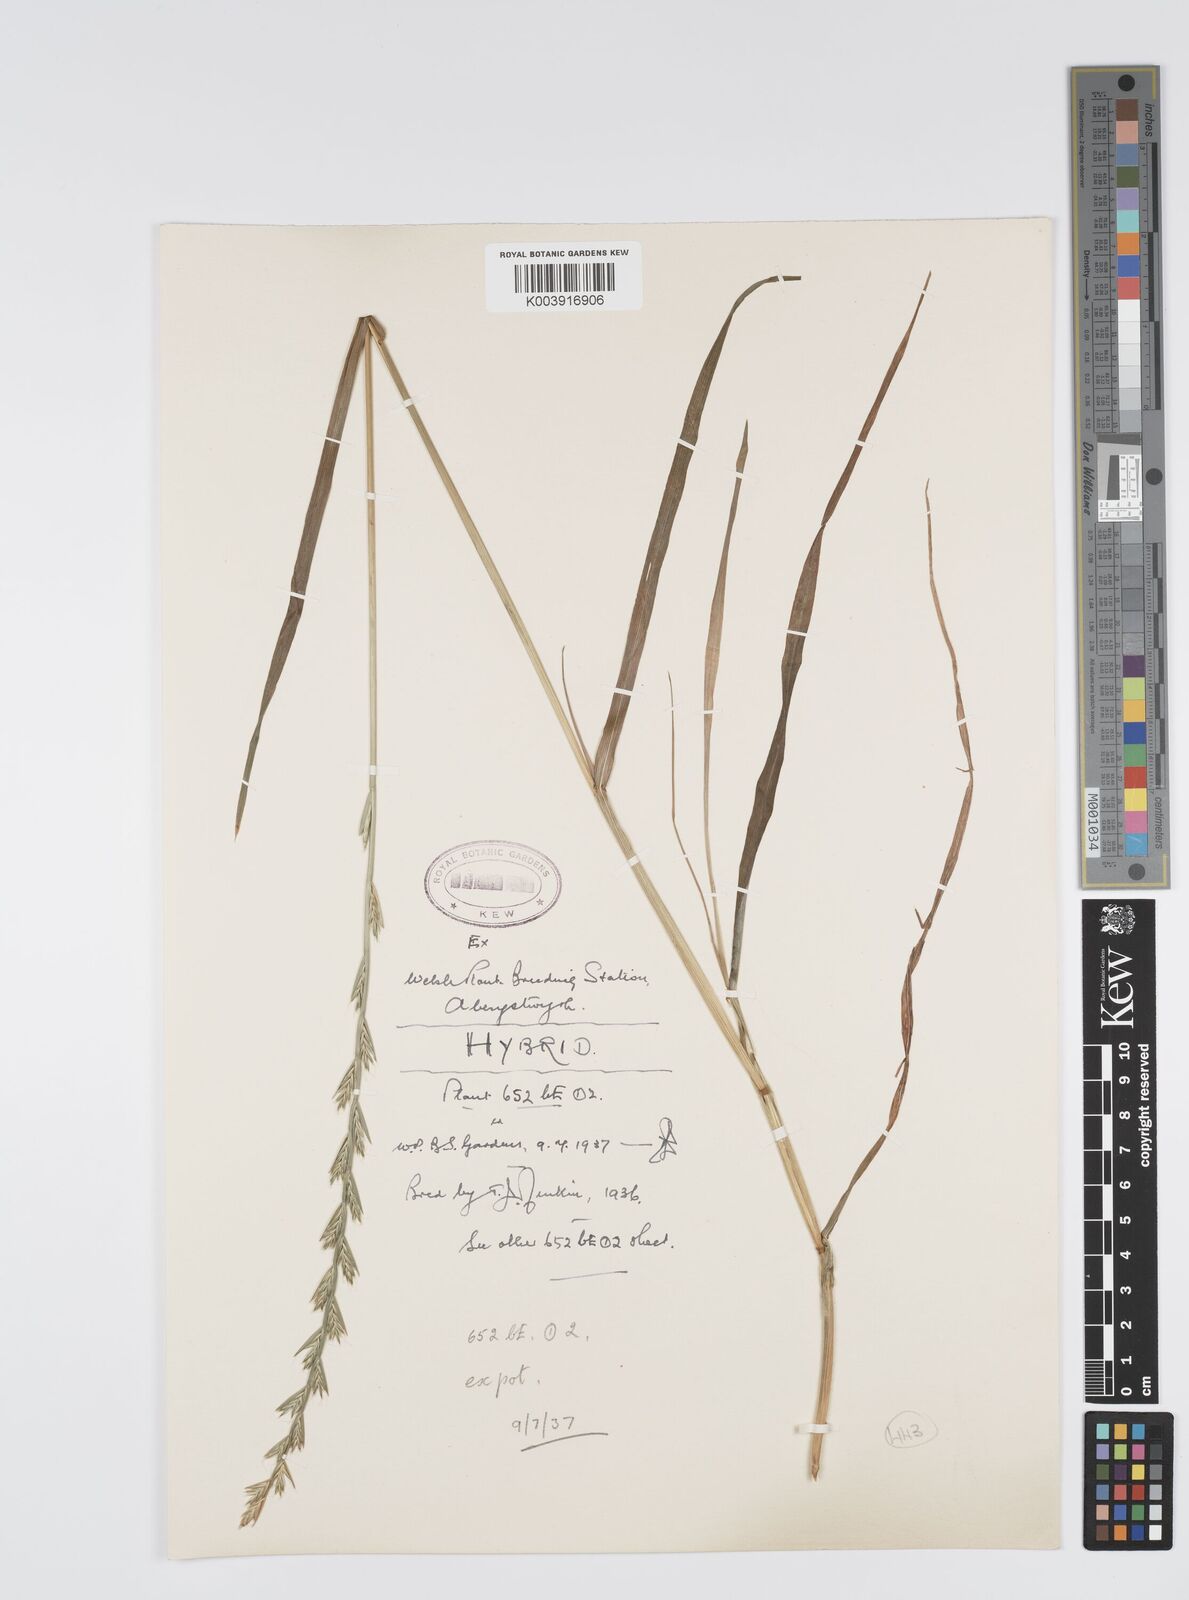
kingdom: Plantae
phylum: Tracheophyta
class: Liliopsida
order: Poales
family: Poaceae
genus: Lolium
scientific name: Lolium multiflorum
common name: Annual ryegrass
